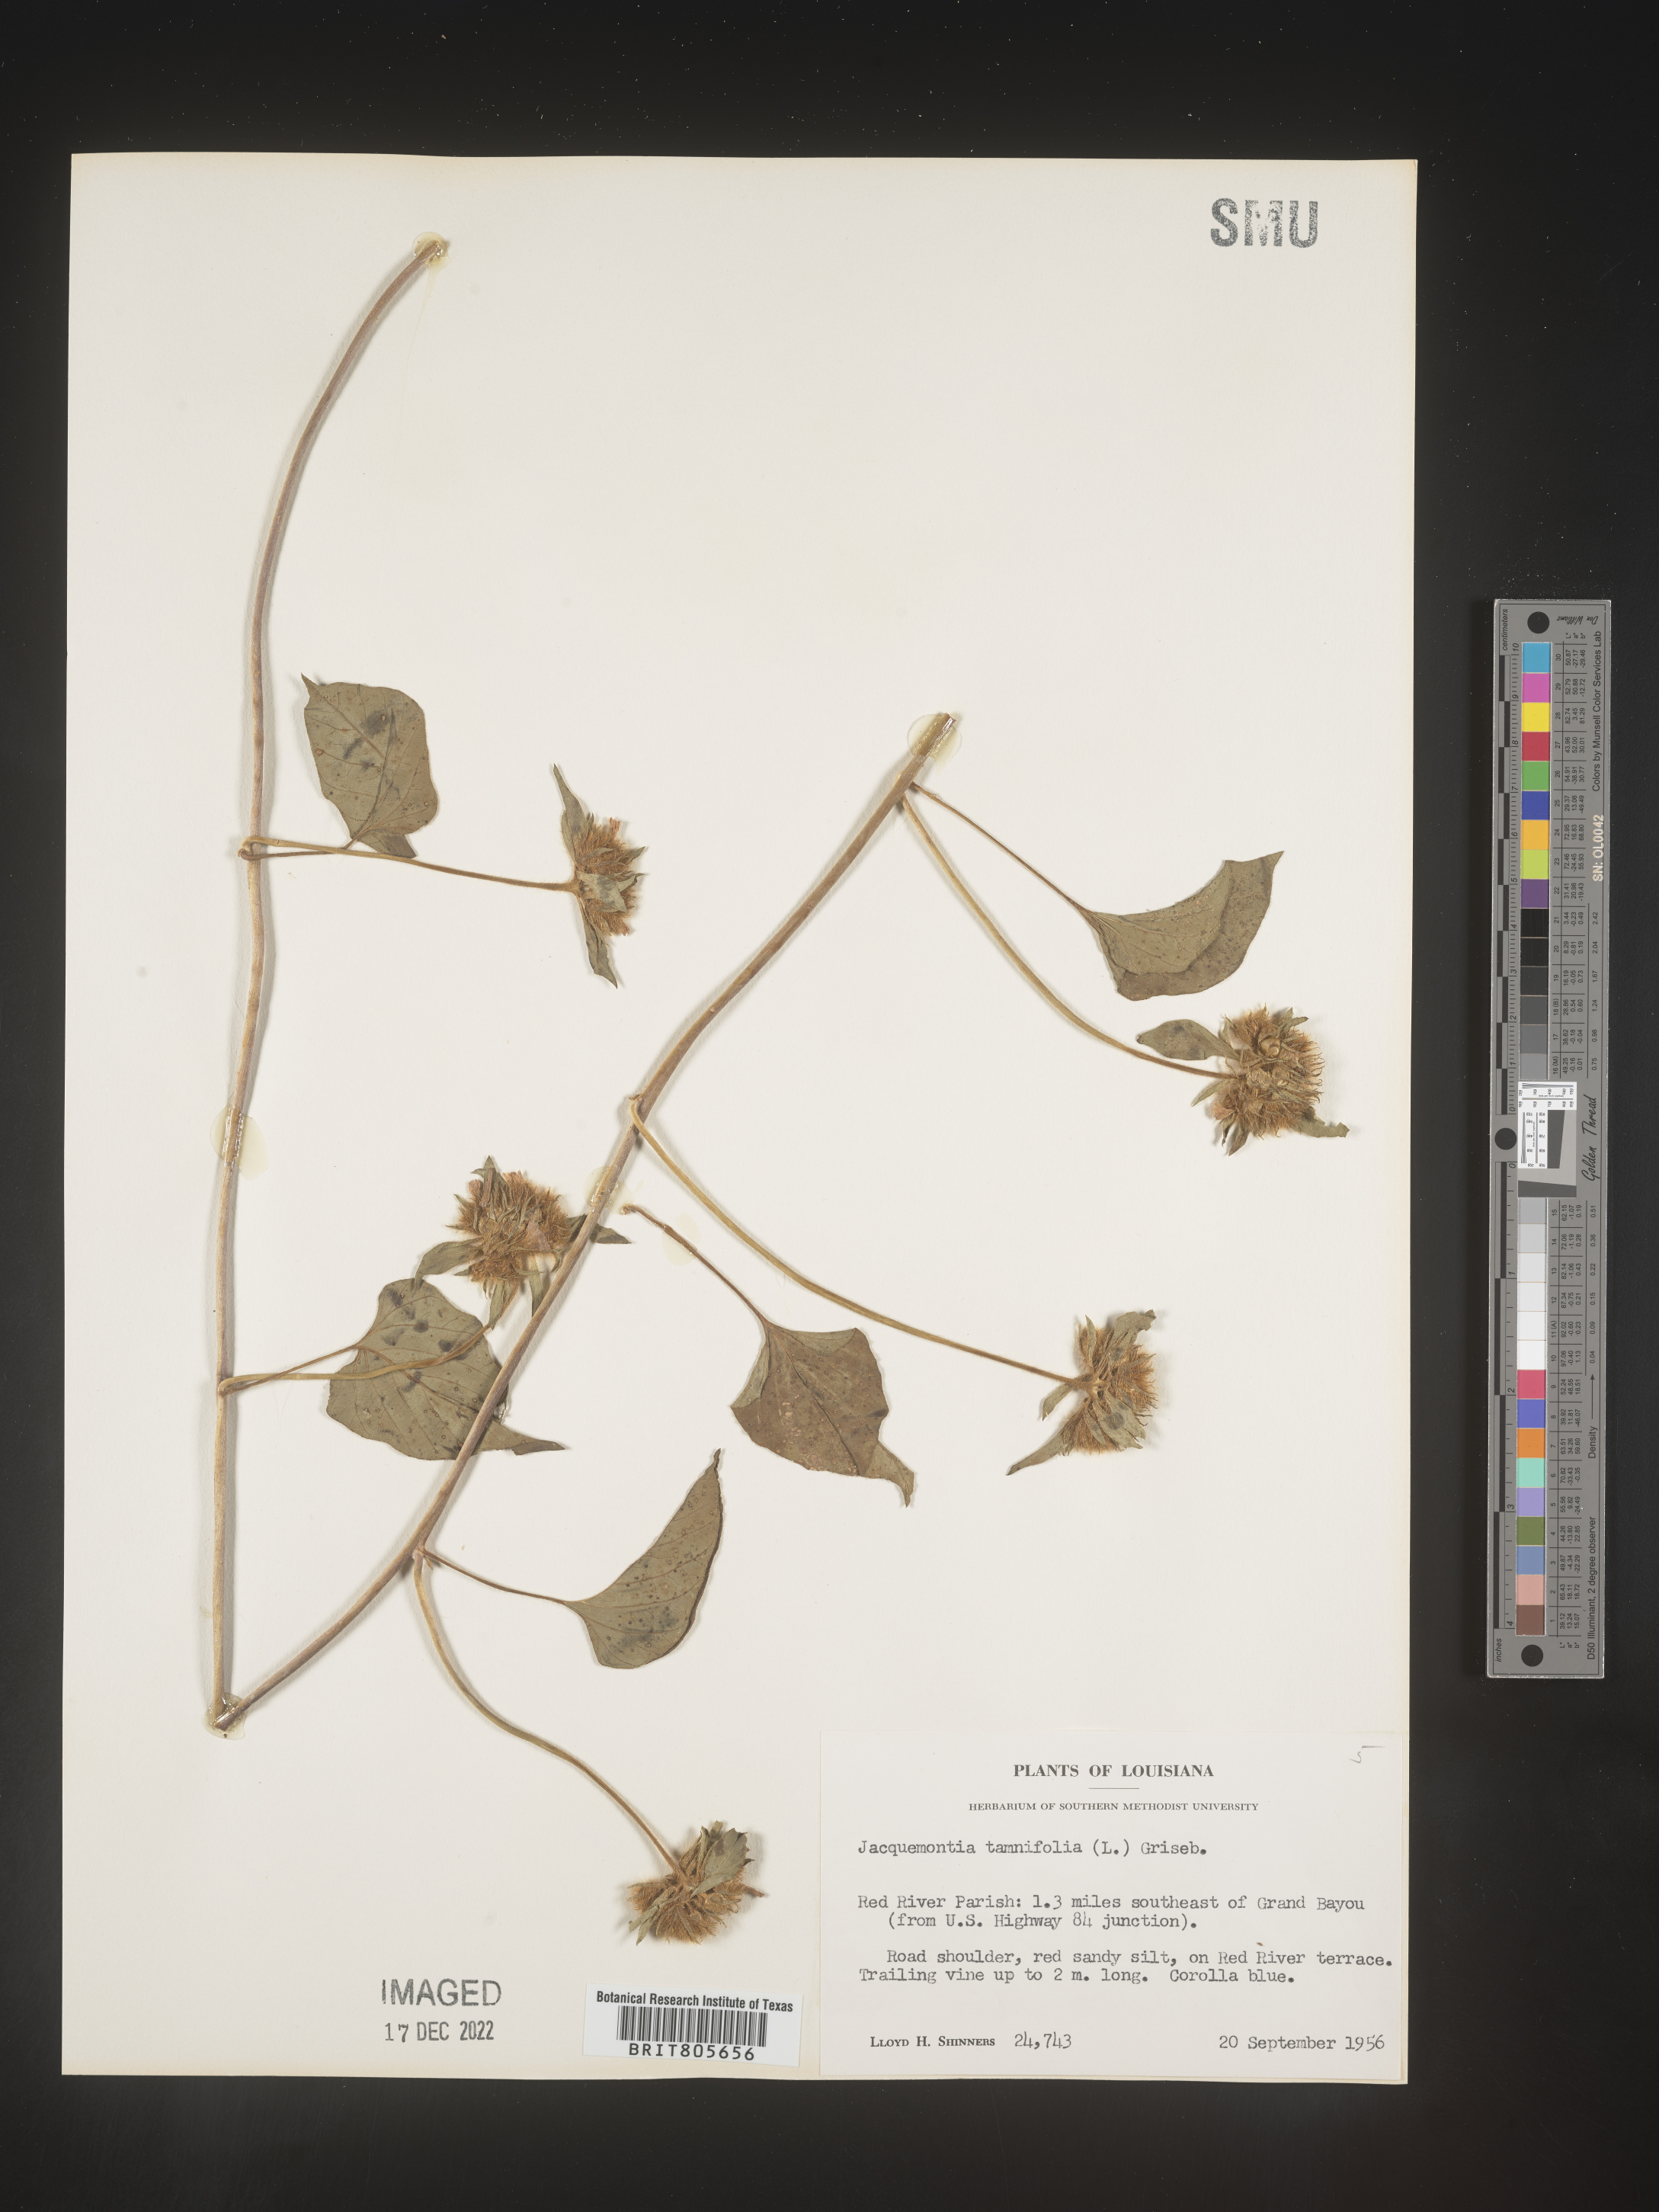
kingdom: Plantae
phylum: Tracheophyta
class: Magnoliopsida
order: Solanales
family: Convolvulaceae
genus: Jacquemontia
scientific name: Jacquemontia tamnifolia
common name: Hairy clustervine
